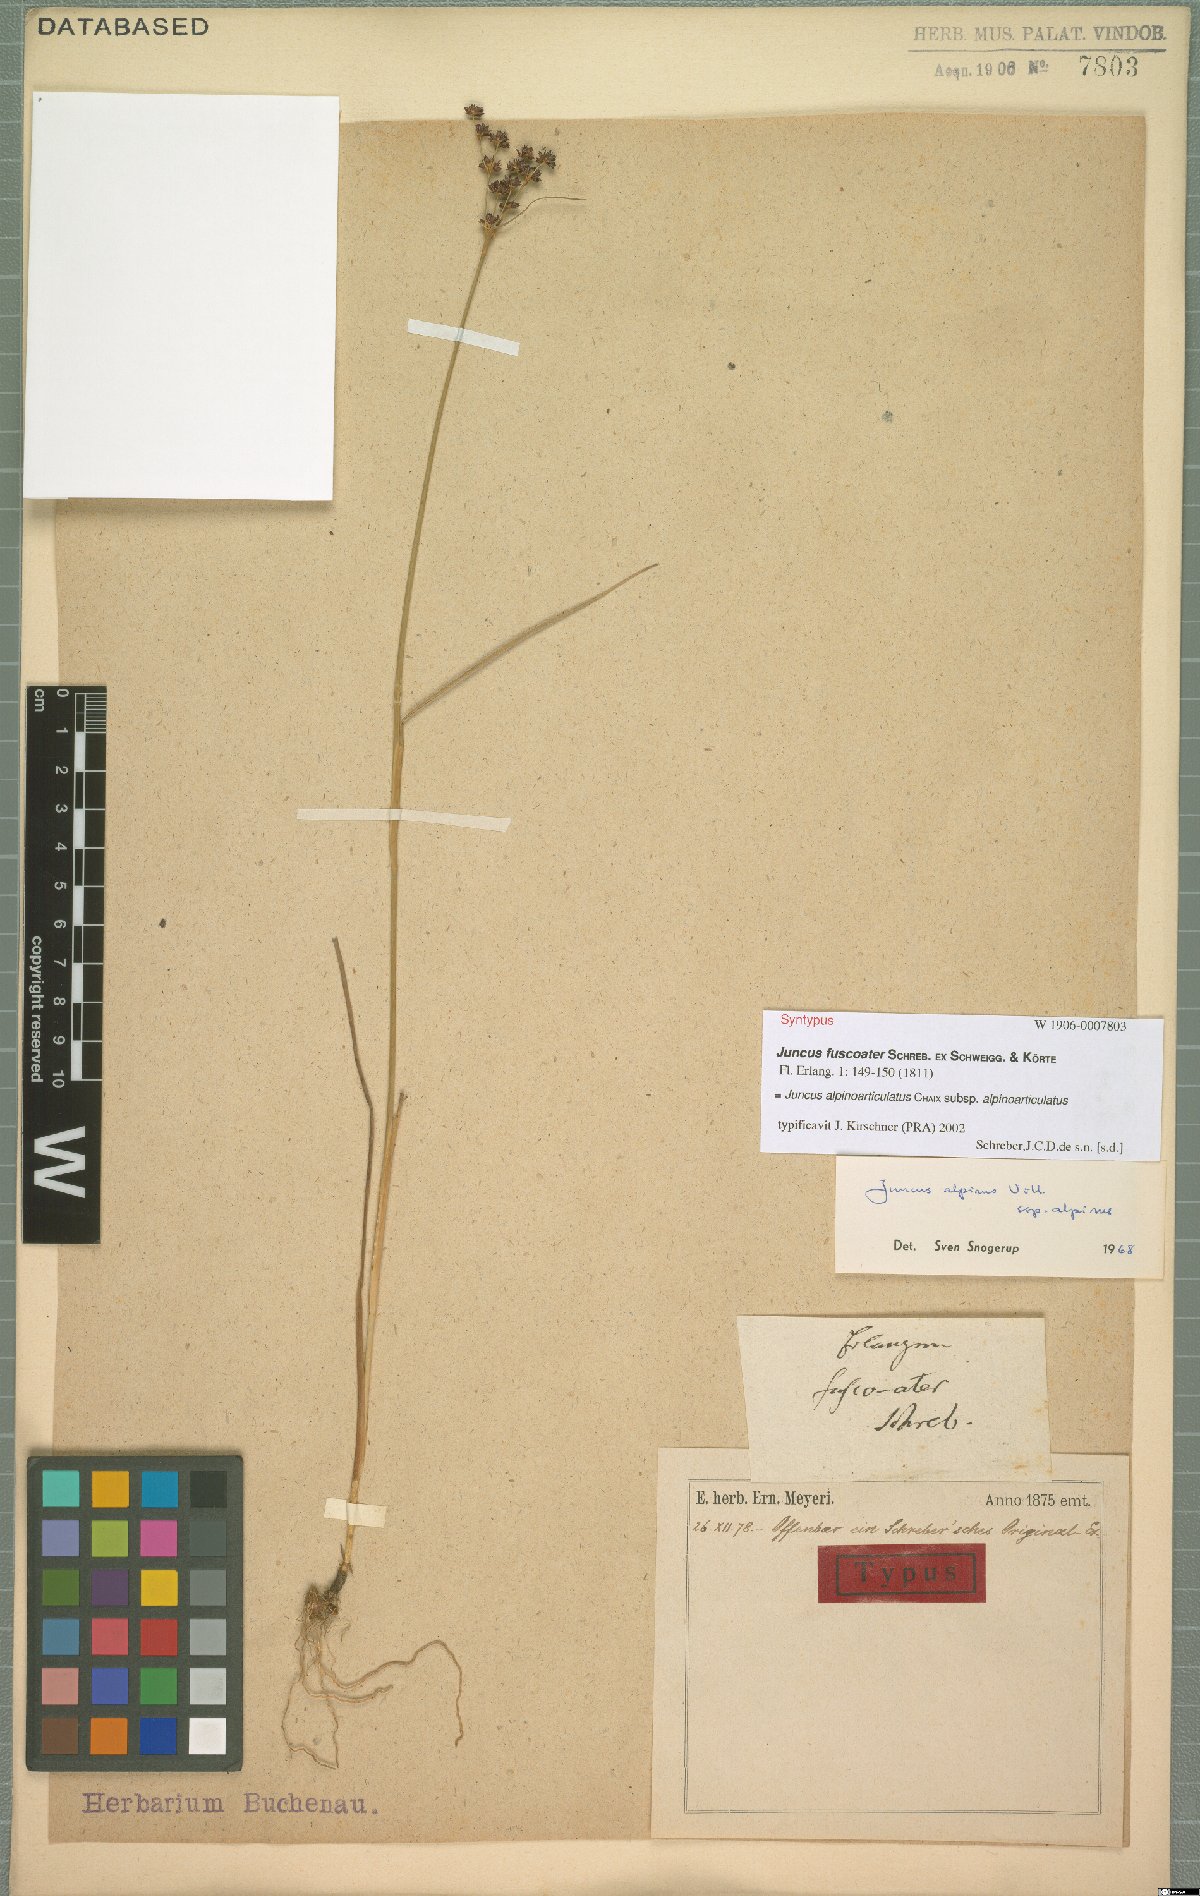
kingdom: Plantae
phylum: Tracheophyta
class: Liliopsida
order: Poales
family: Juncaceae
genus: Juncus
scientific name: Juncus alpinoarticulatus
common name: Alpine rush
